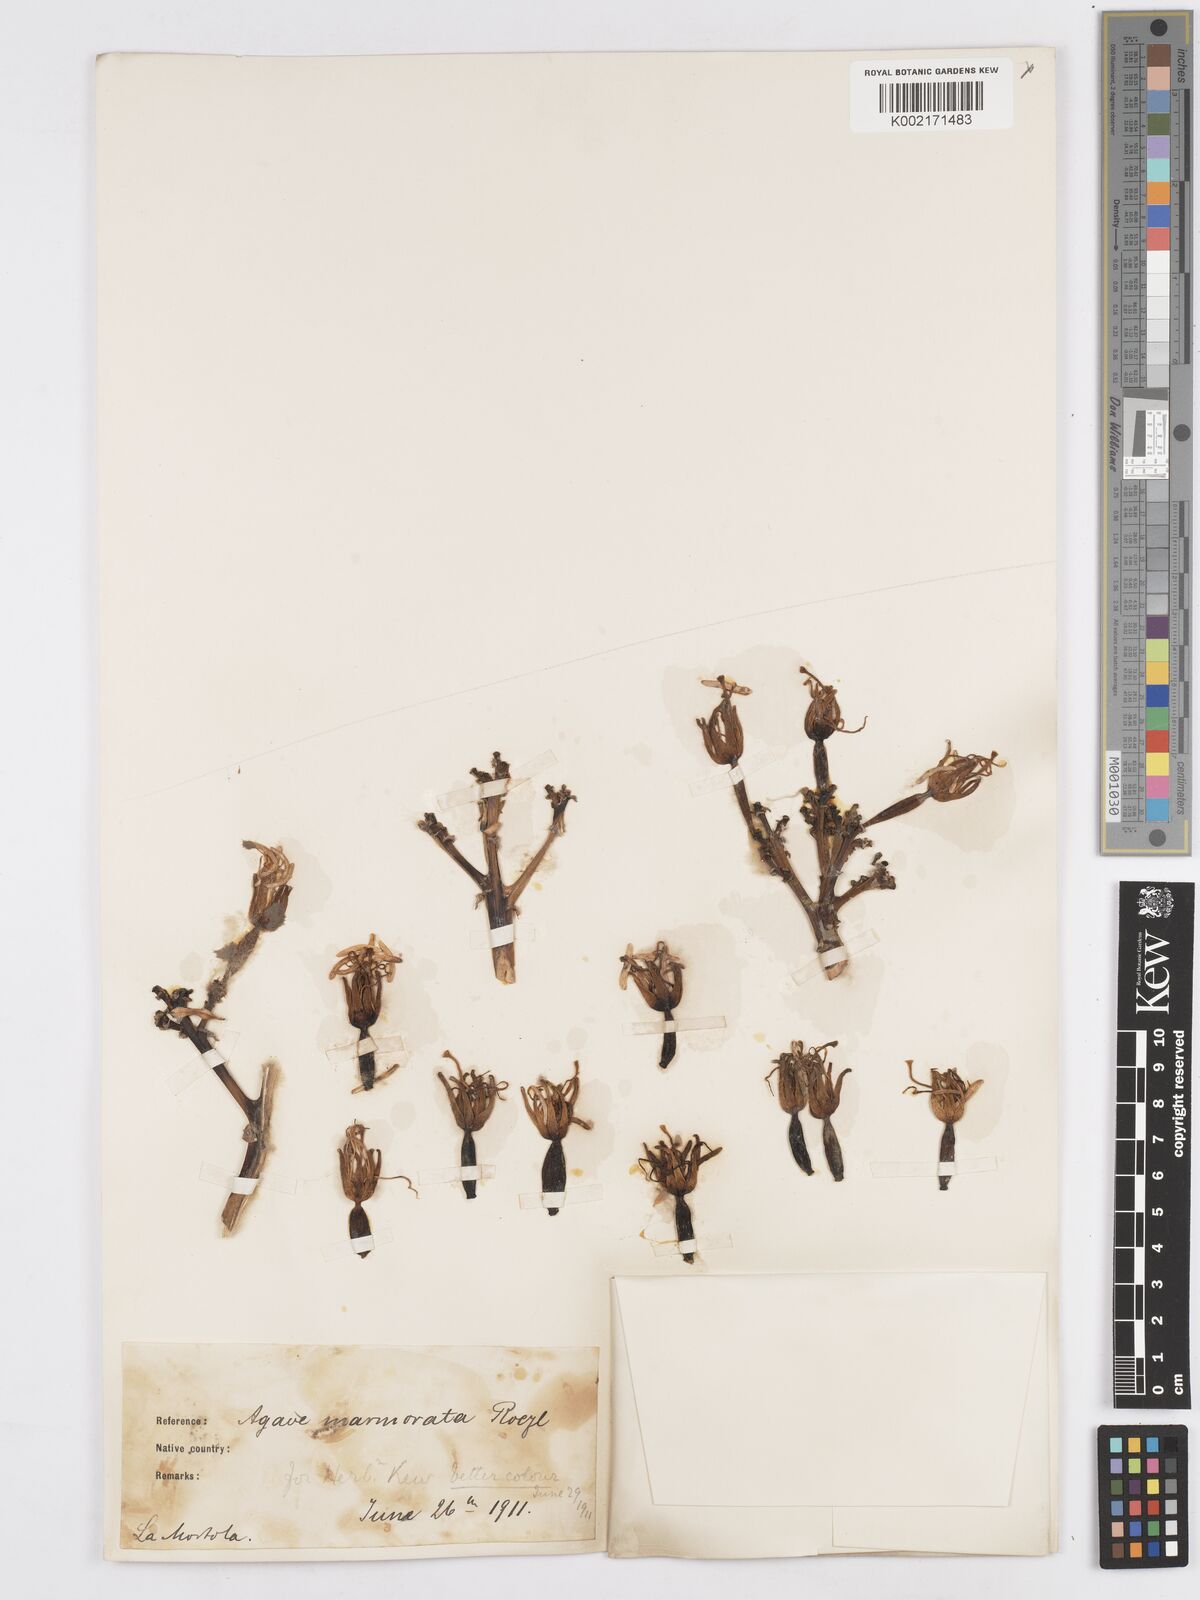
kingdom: Plantae
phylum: Tracheophyta
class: Liliopsida
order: Asparagales
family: Asparagaceae
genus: Agave
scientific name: Agave marmorata
